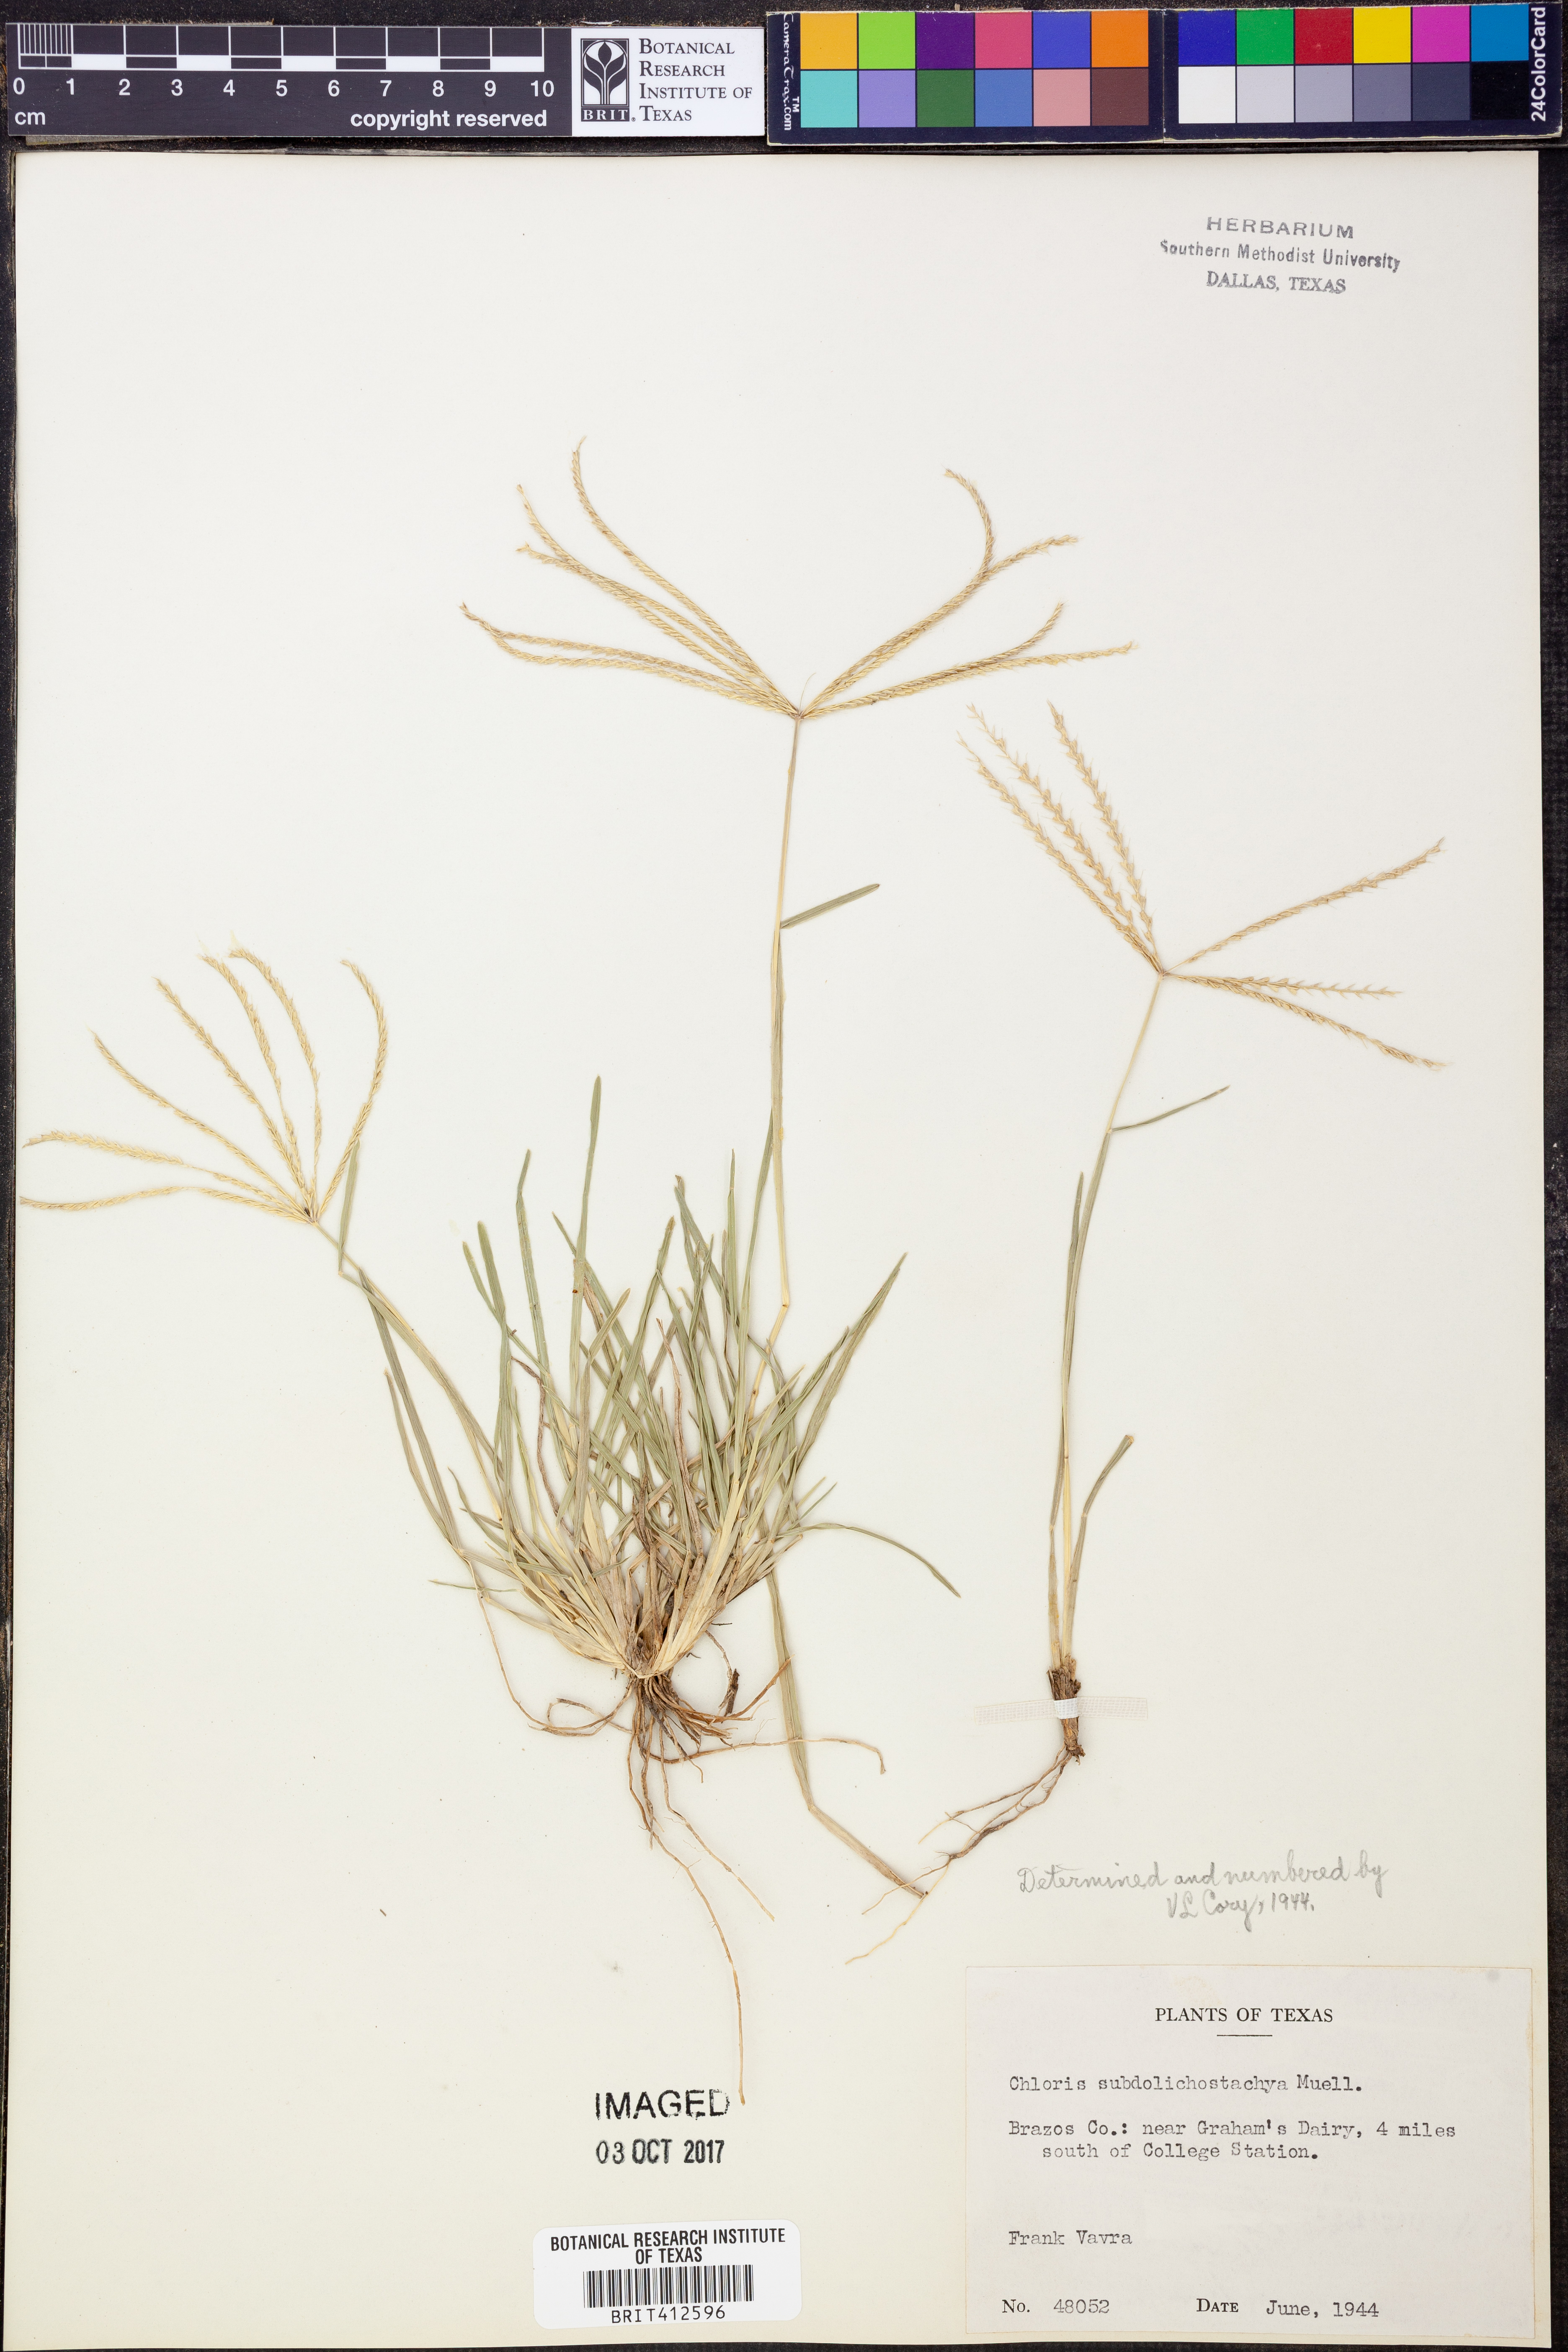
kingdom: Plantae
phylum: Tracheophyta
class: Liliopsida
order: Poales
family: Poaceae
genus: Chloris
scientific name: Chloris subdolichostachya
